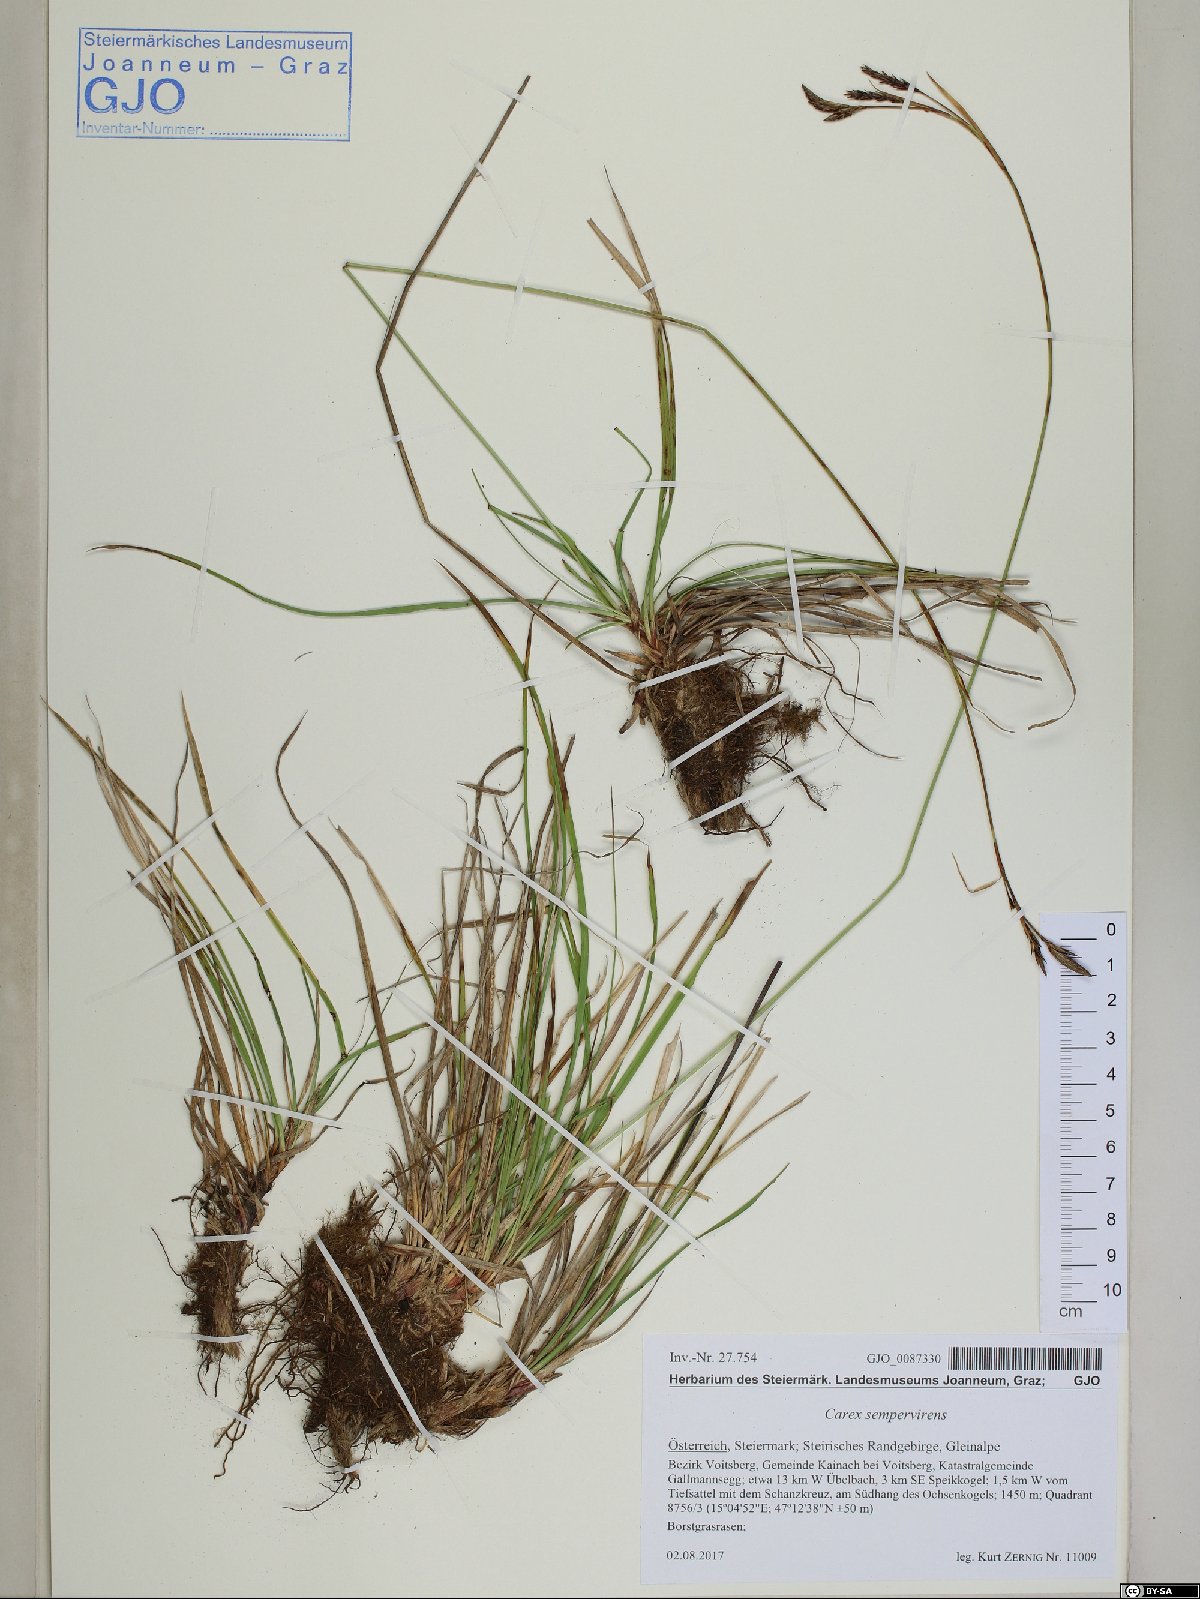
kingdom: Plantae
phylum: Tracheophyta
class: Liliopsida
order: Poales
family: Cyperaceae
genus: Carex
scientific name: Carex sempervirens
